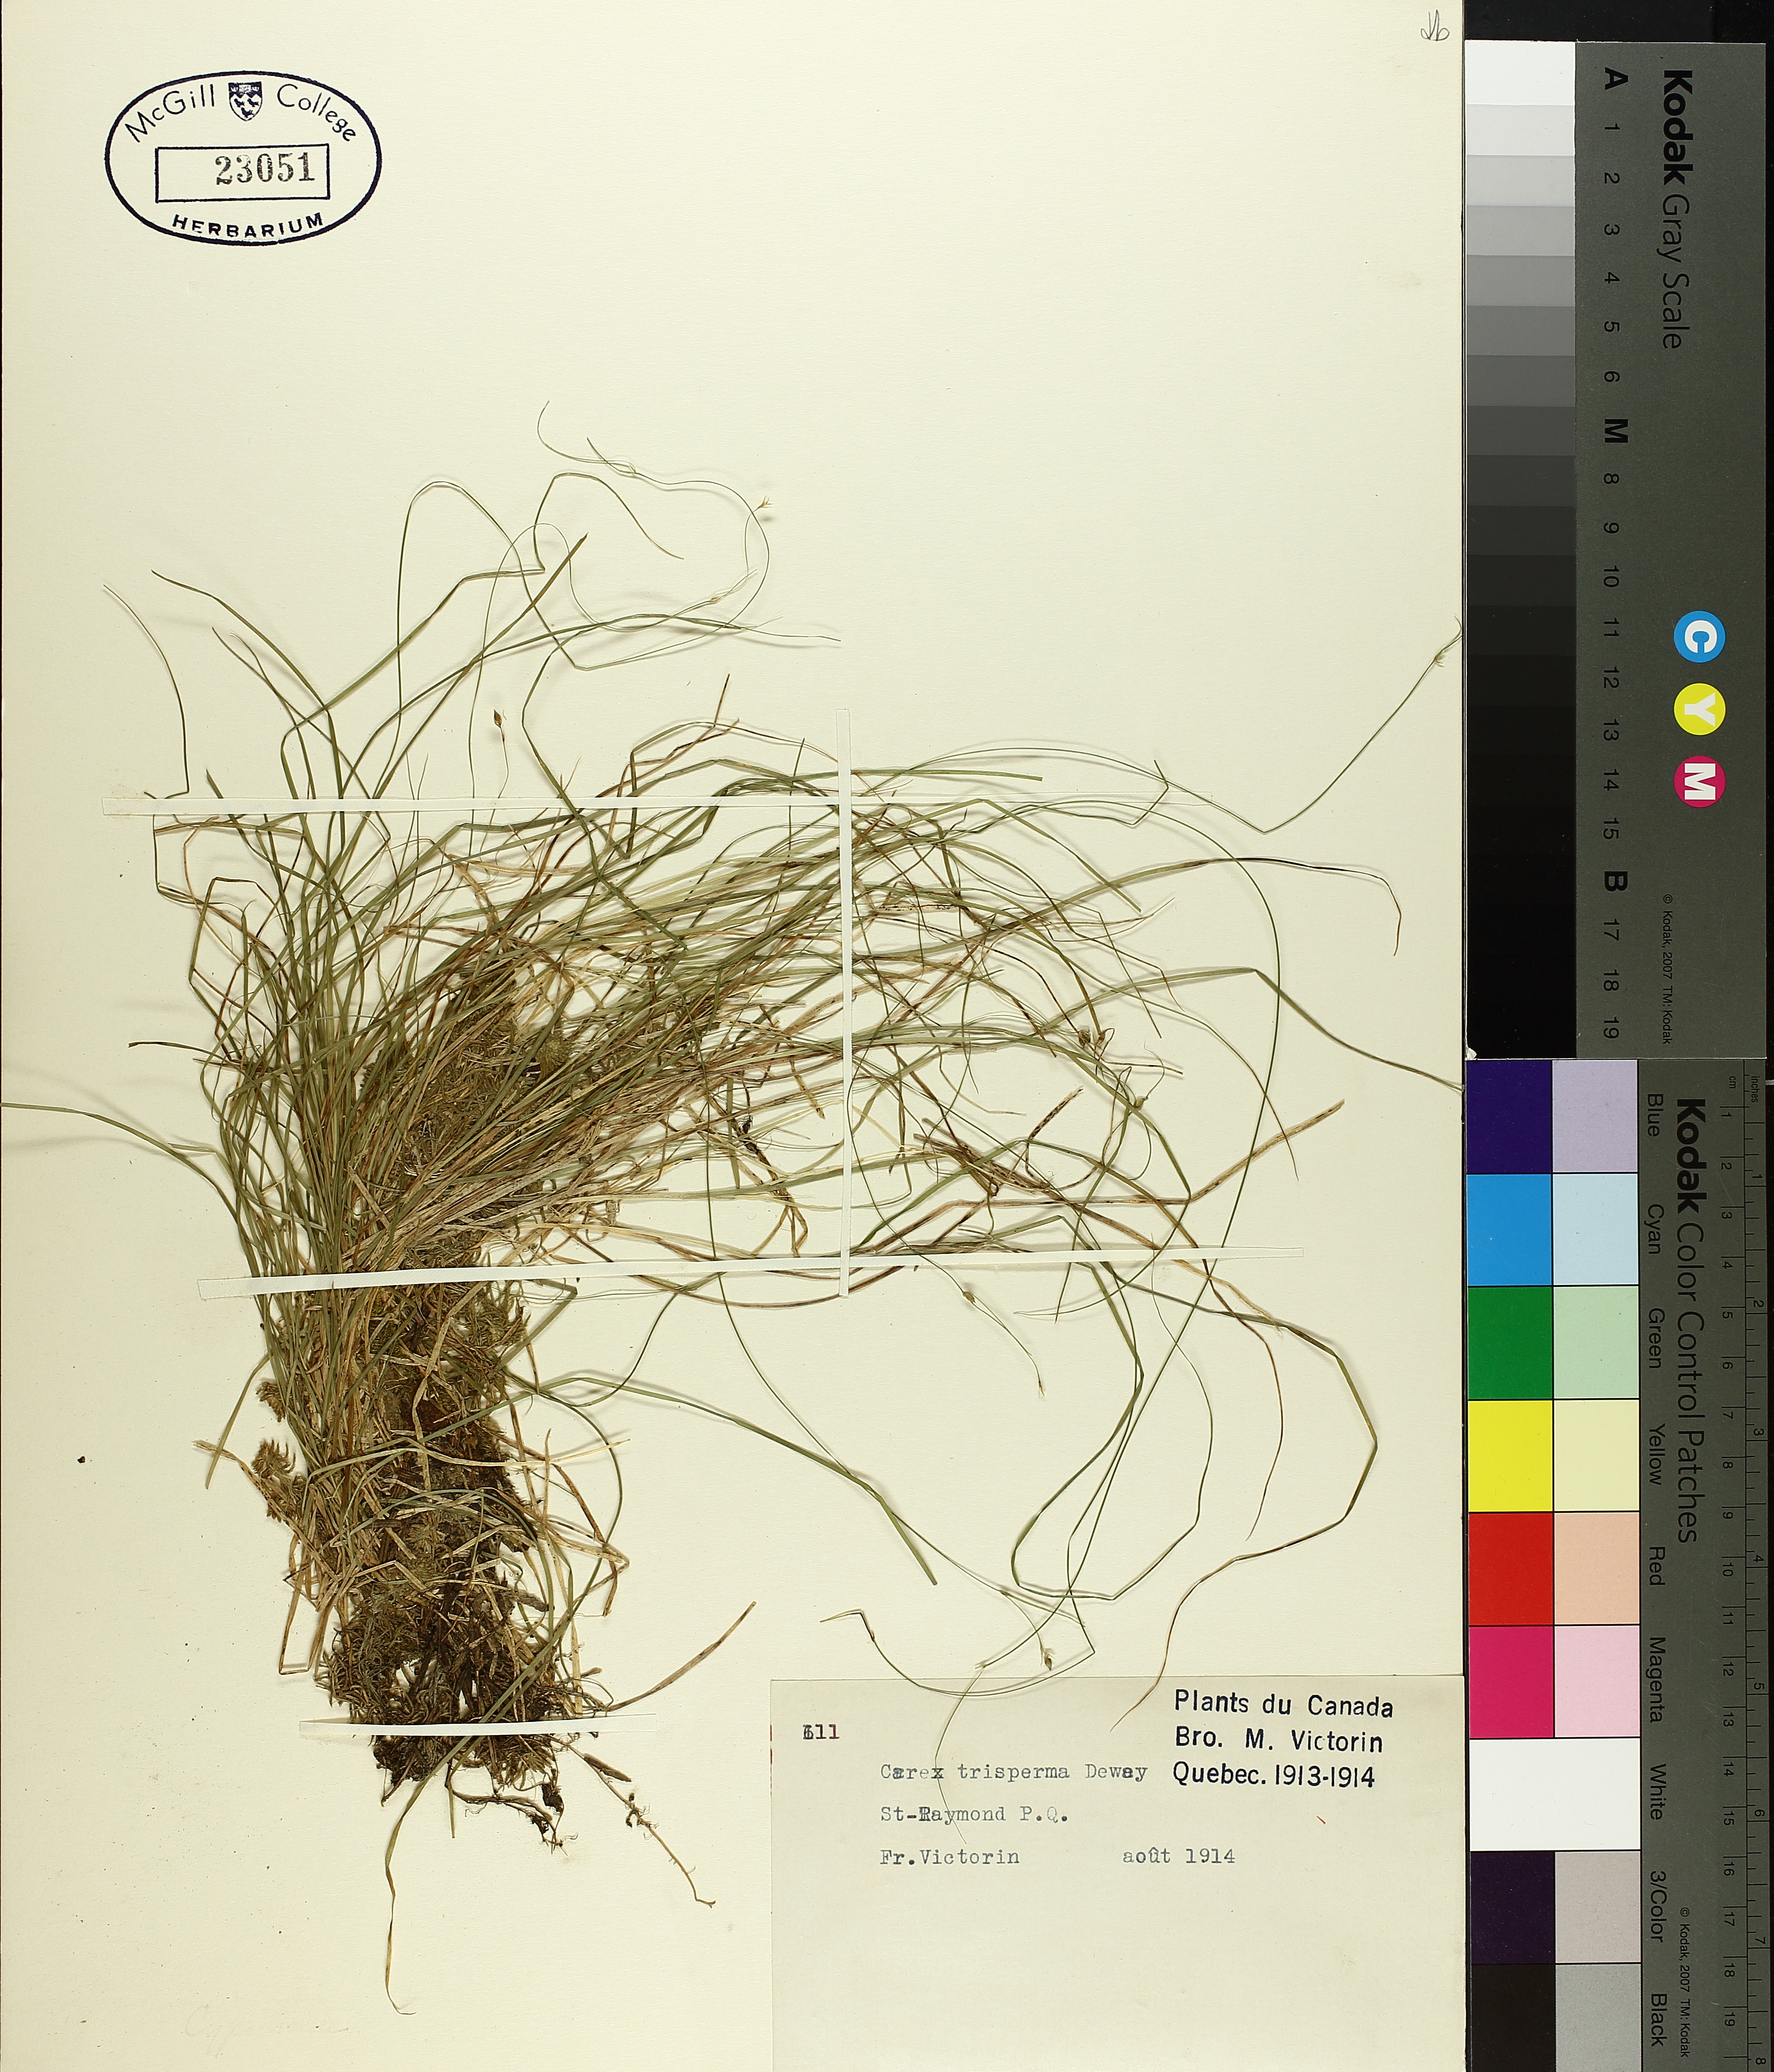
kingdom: Plantae
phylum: Tracheophyta
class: Liliopsida
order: Poales
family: Cyperaceae
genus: Carex
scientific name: Carex trisperma
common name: Three-seeded sedge
